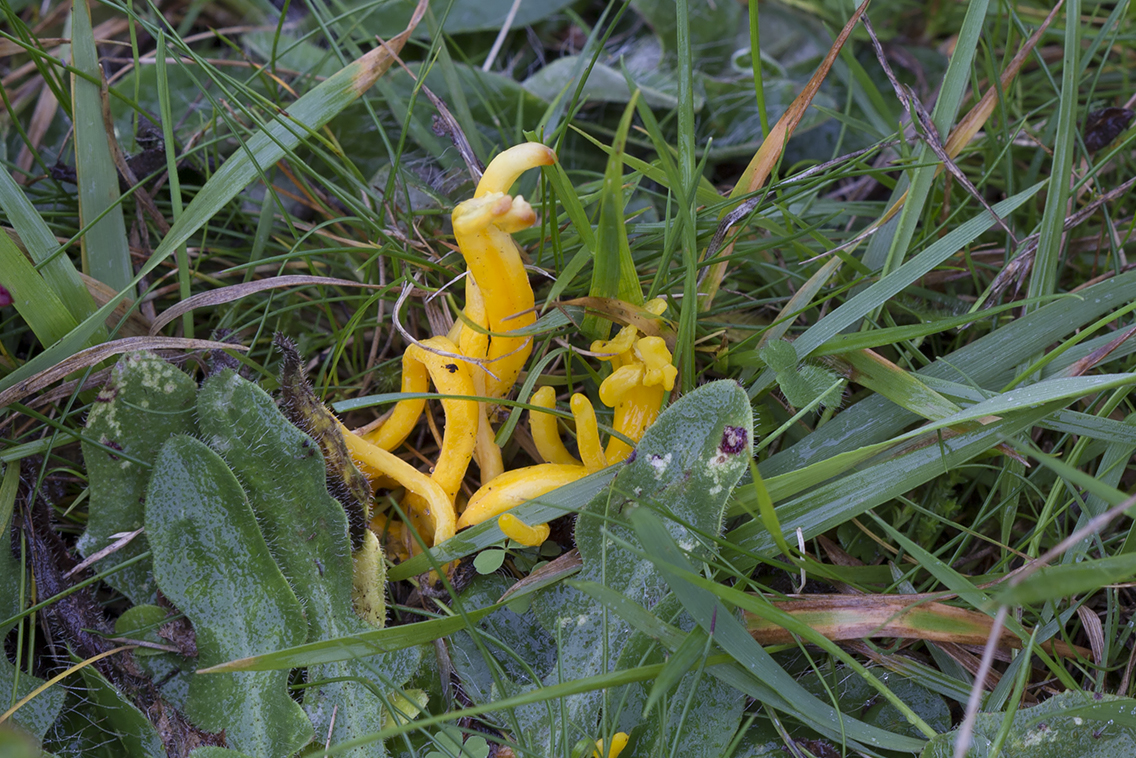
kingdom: Fungi
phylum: Basidiomycota
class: Agaricomycetes
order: Agaricales
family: Clavariaceae
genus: Clavulinopsis
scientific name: Clavulinopsis helvola
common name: orangegul køllesvamp
